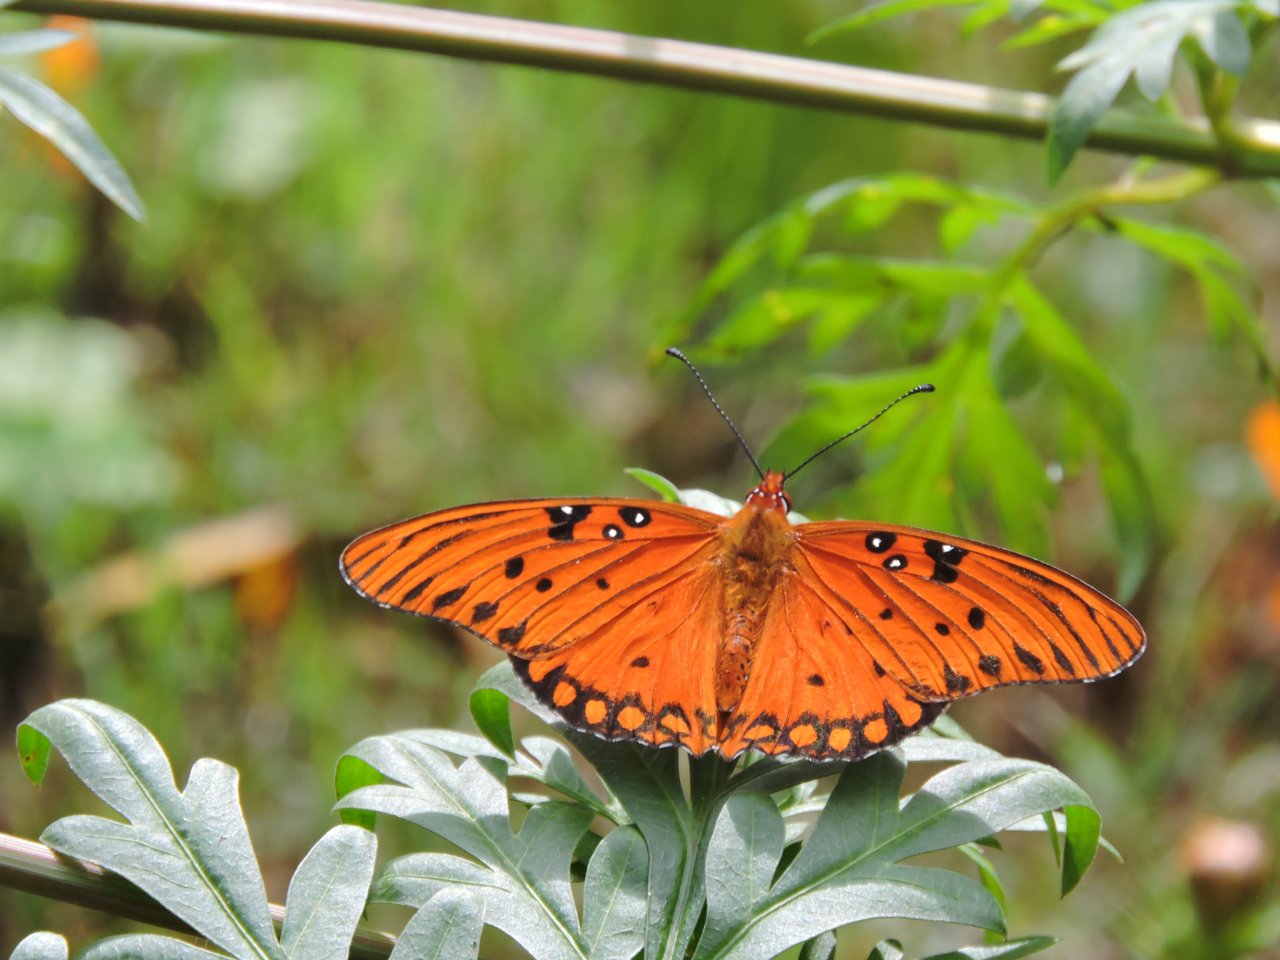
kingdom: Animalia
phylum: Arthropoda
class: Insecta
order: Lepidoptera
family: Nymphalidae
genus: Dione
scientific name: Dione vanillae
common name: Gulf Fritillary
